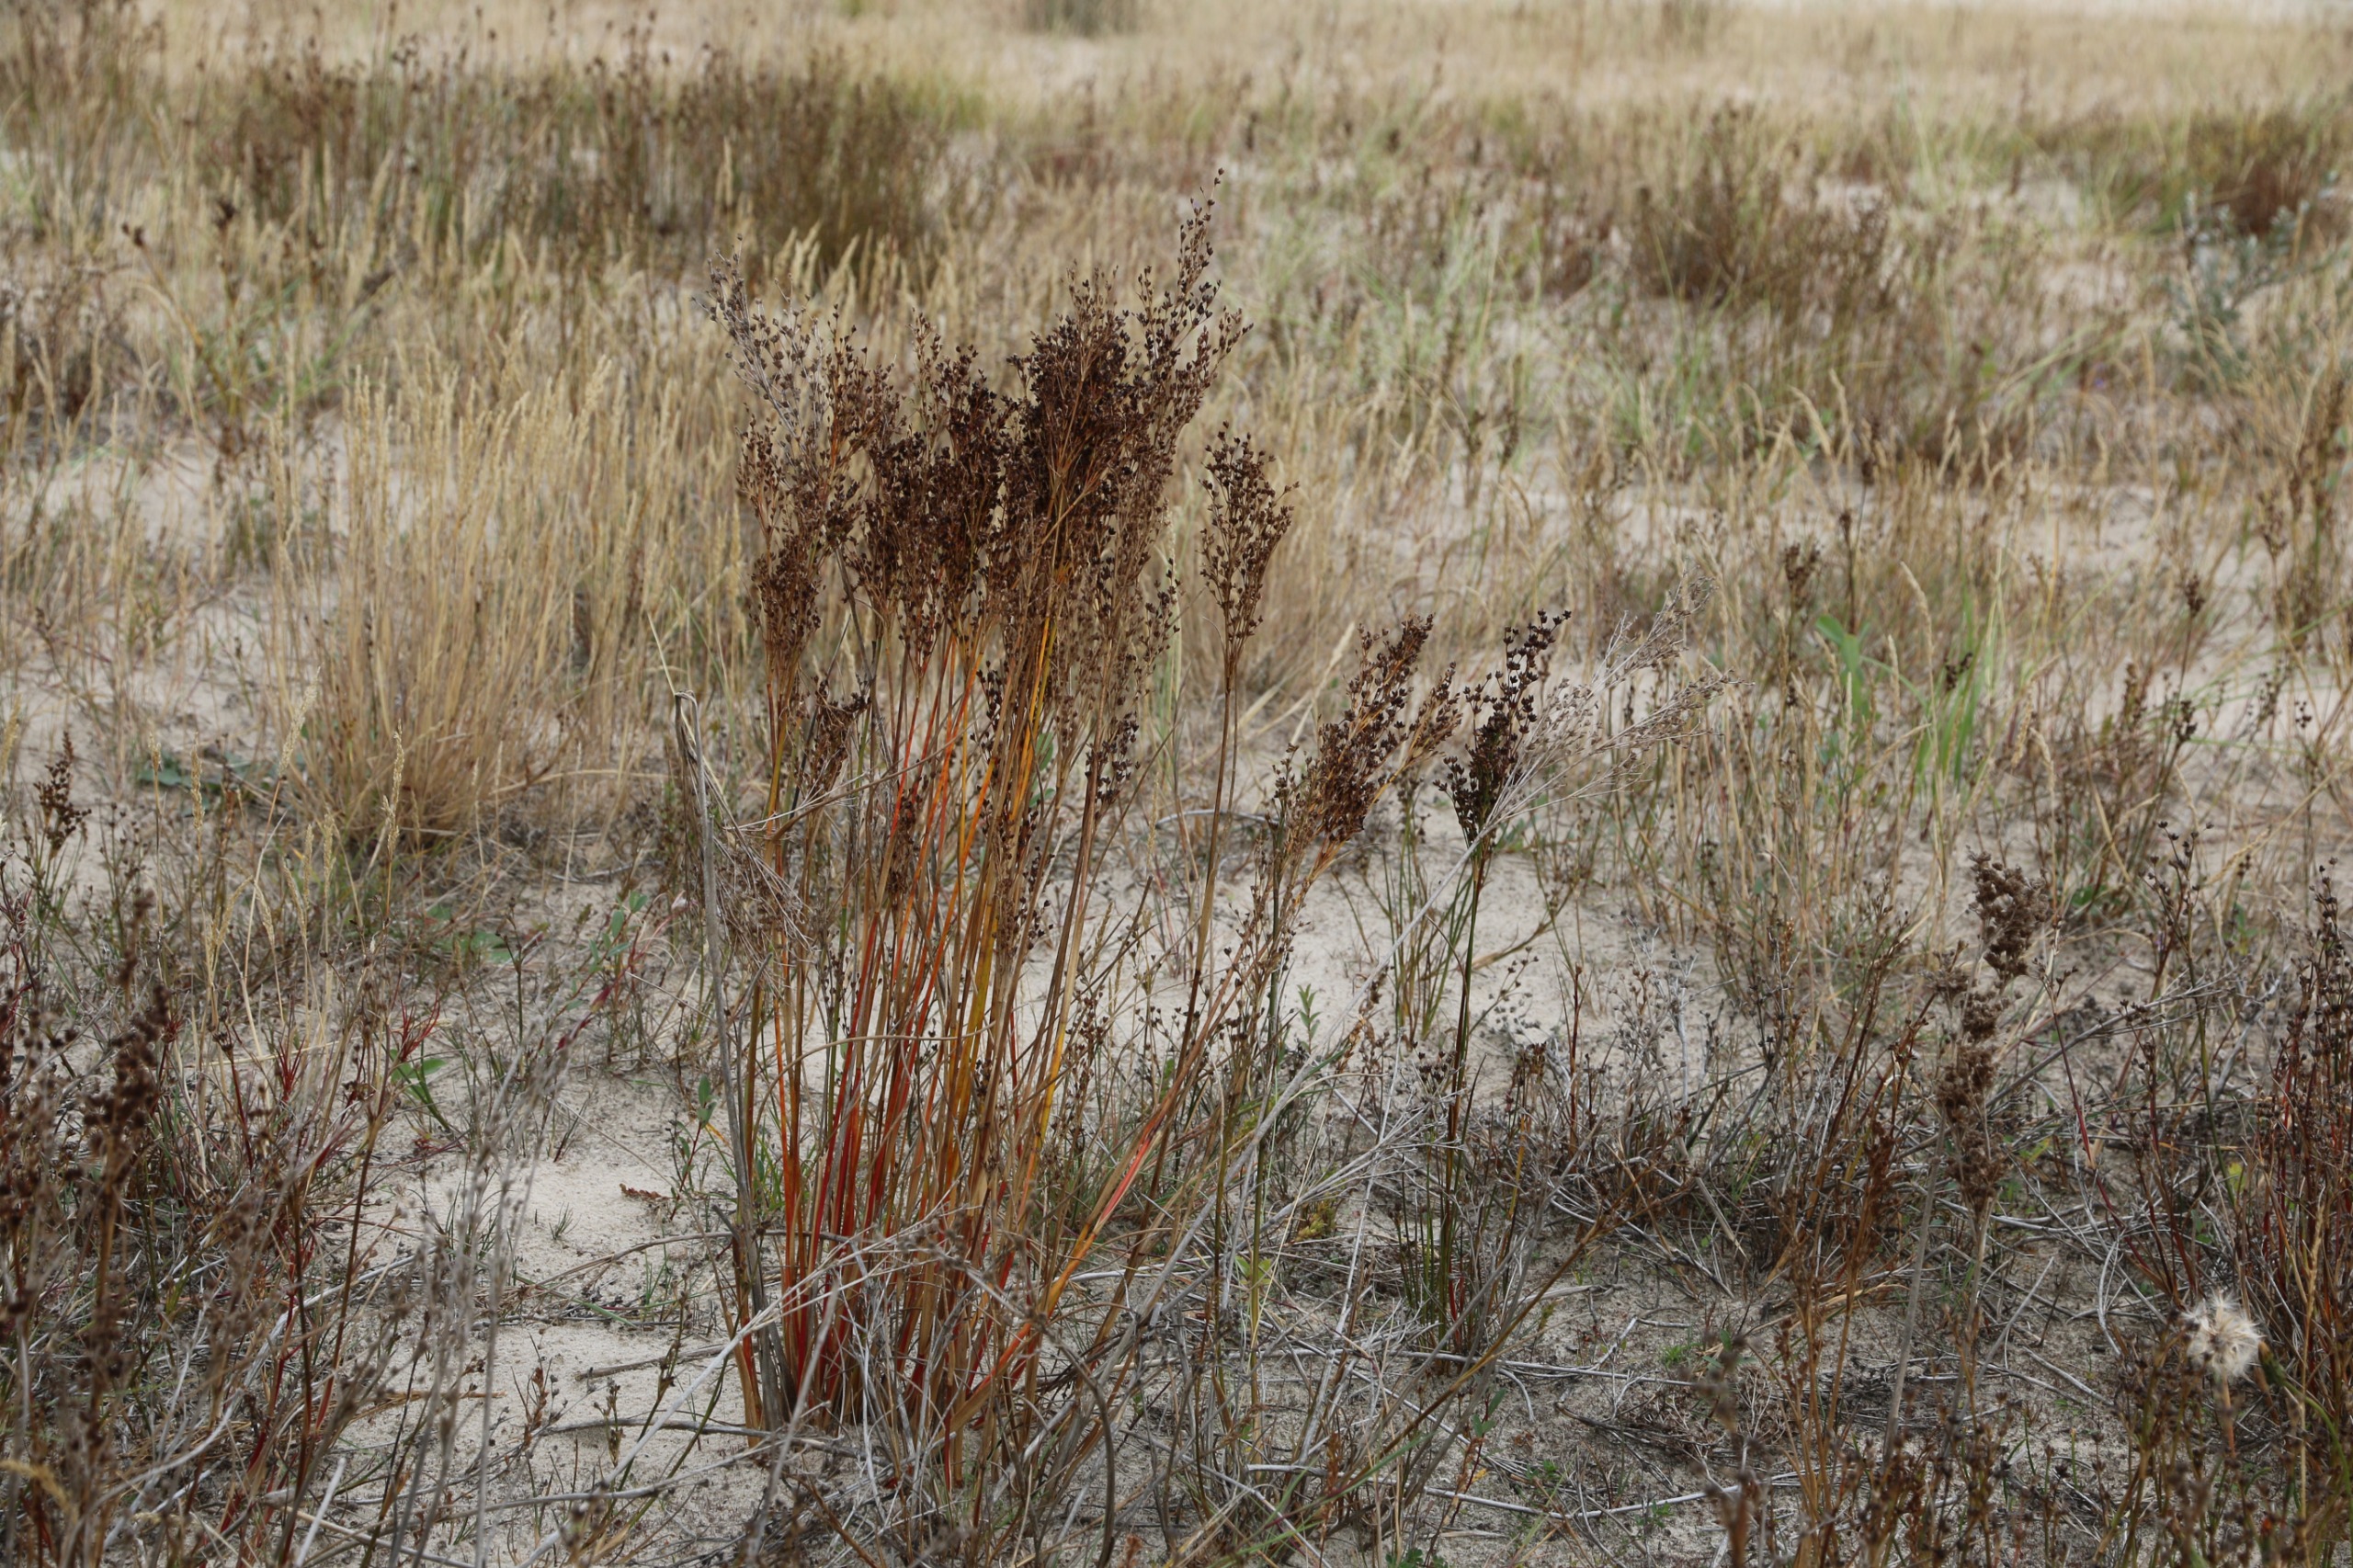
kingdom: Plantae
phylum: Tracheophyta
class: Liliopsida
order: Poales
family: Juncaceae
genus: Juncus
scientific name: Juncus anceps
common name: Sand-siv
